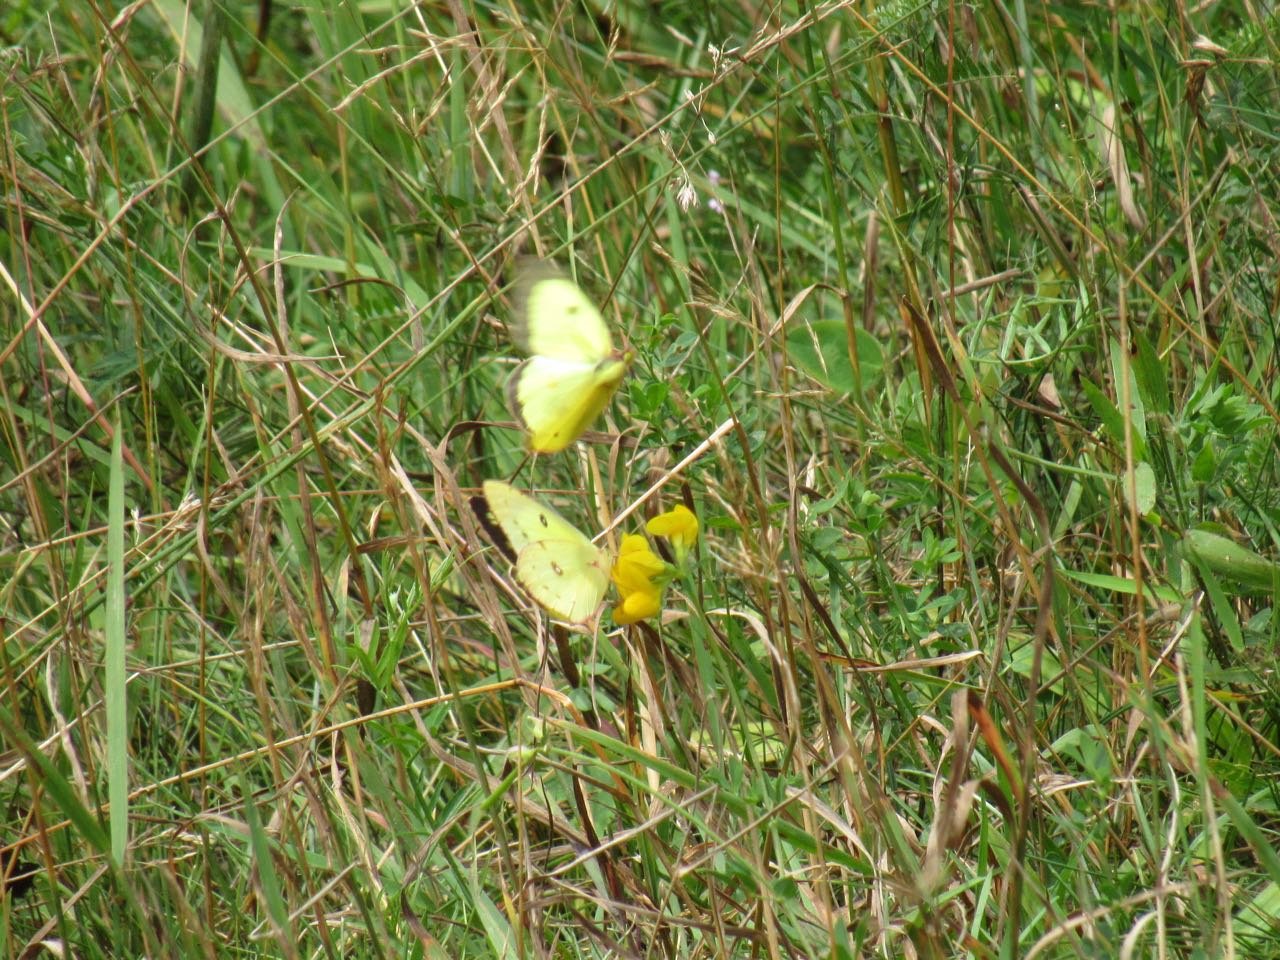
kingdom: Animalia
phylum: Arthropoda
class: Insecta
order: Lepidoptera
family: Pieridae
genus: Colias
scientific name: Colias philodice
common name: Clouded Sulphur
